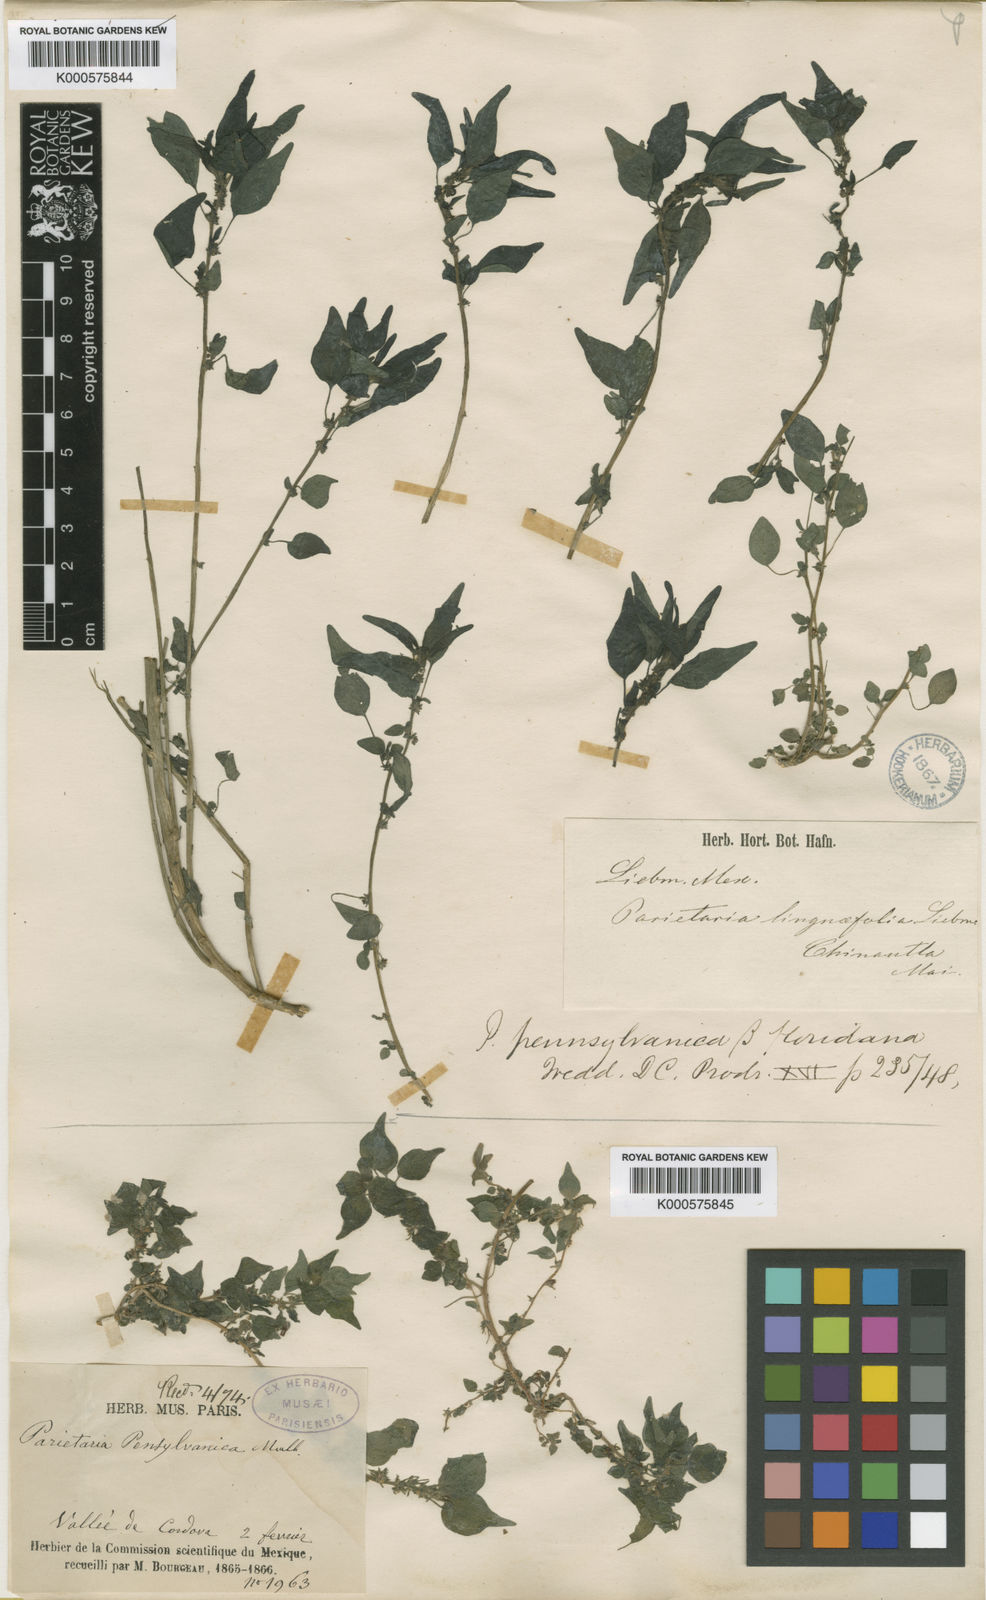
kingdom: Plantae
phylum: Tracheophyta
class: Magnoliopsida
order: Rosales
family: Urticaceae
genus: Parietaria
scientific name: Parietaria pensylvanica
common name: Pennsylvania pellitory
